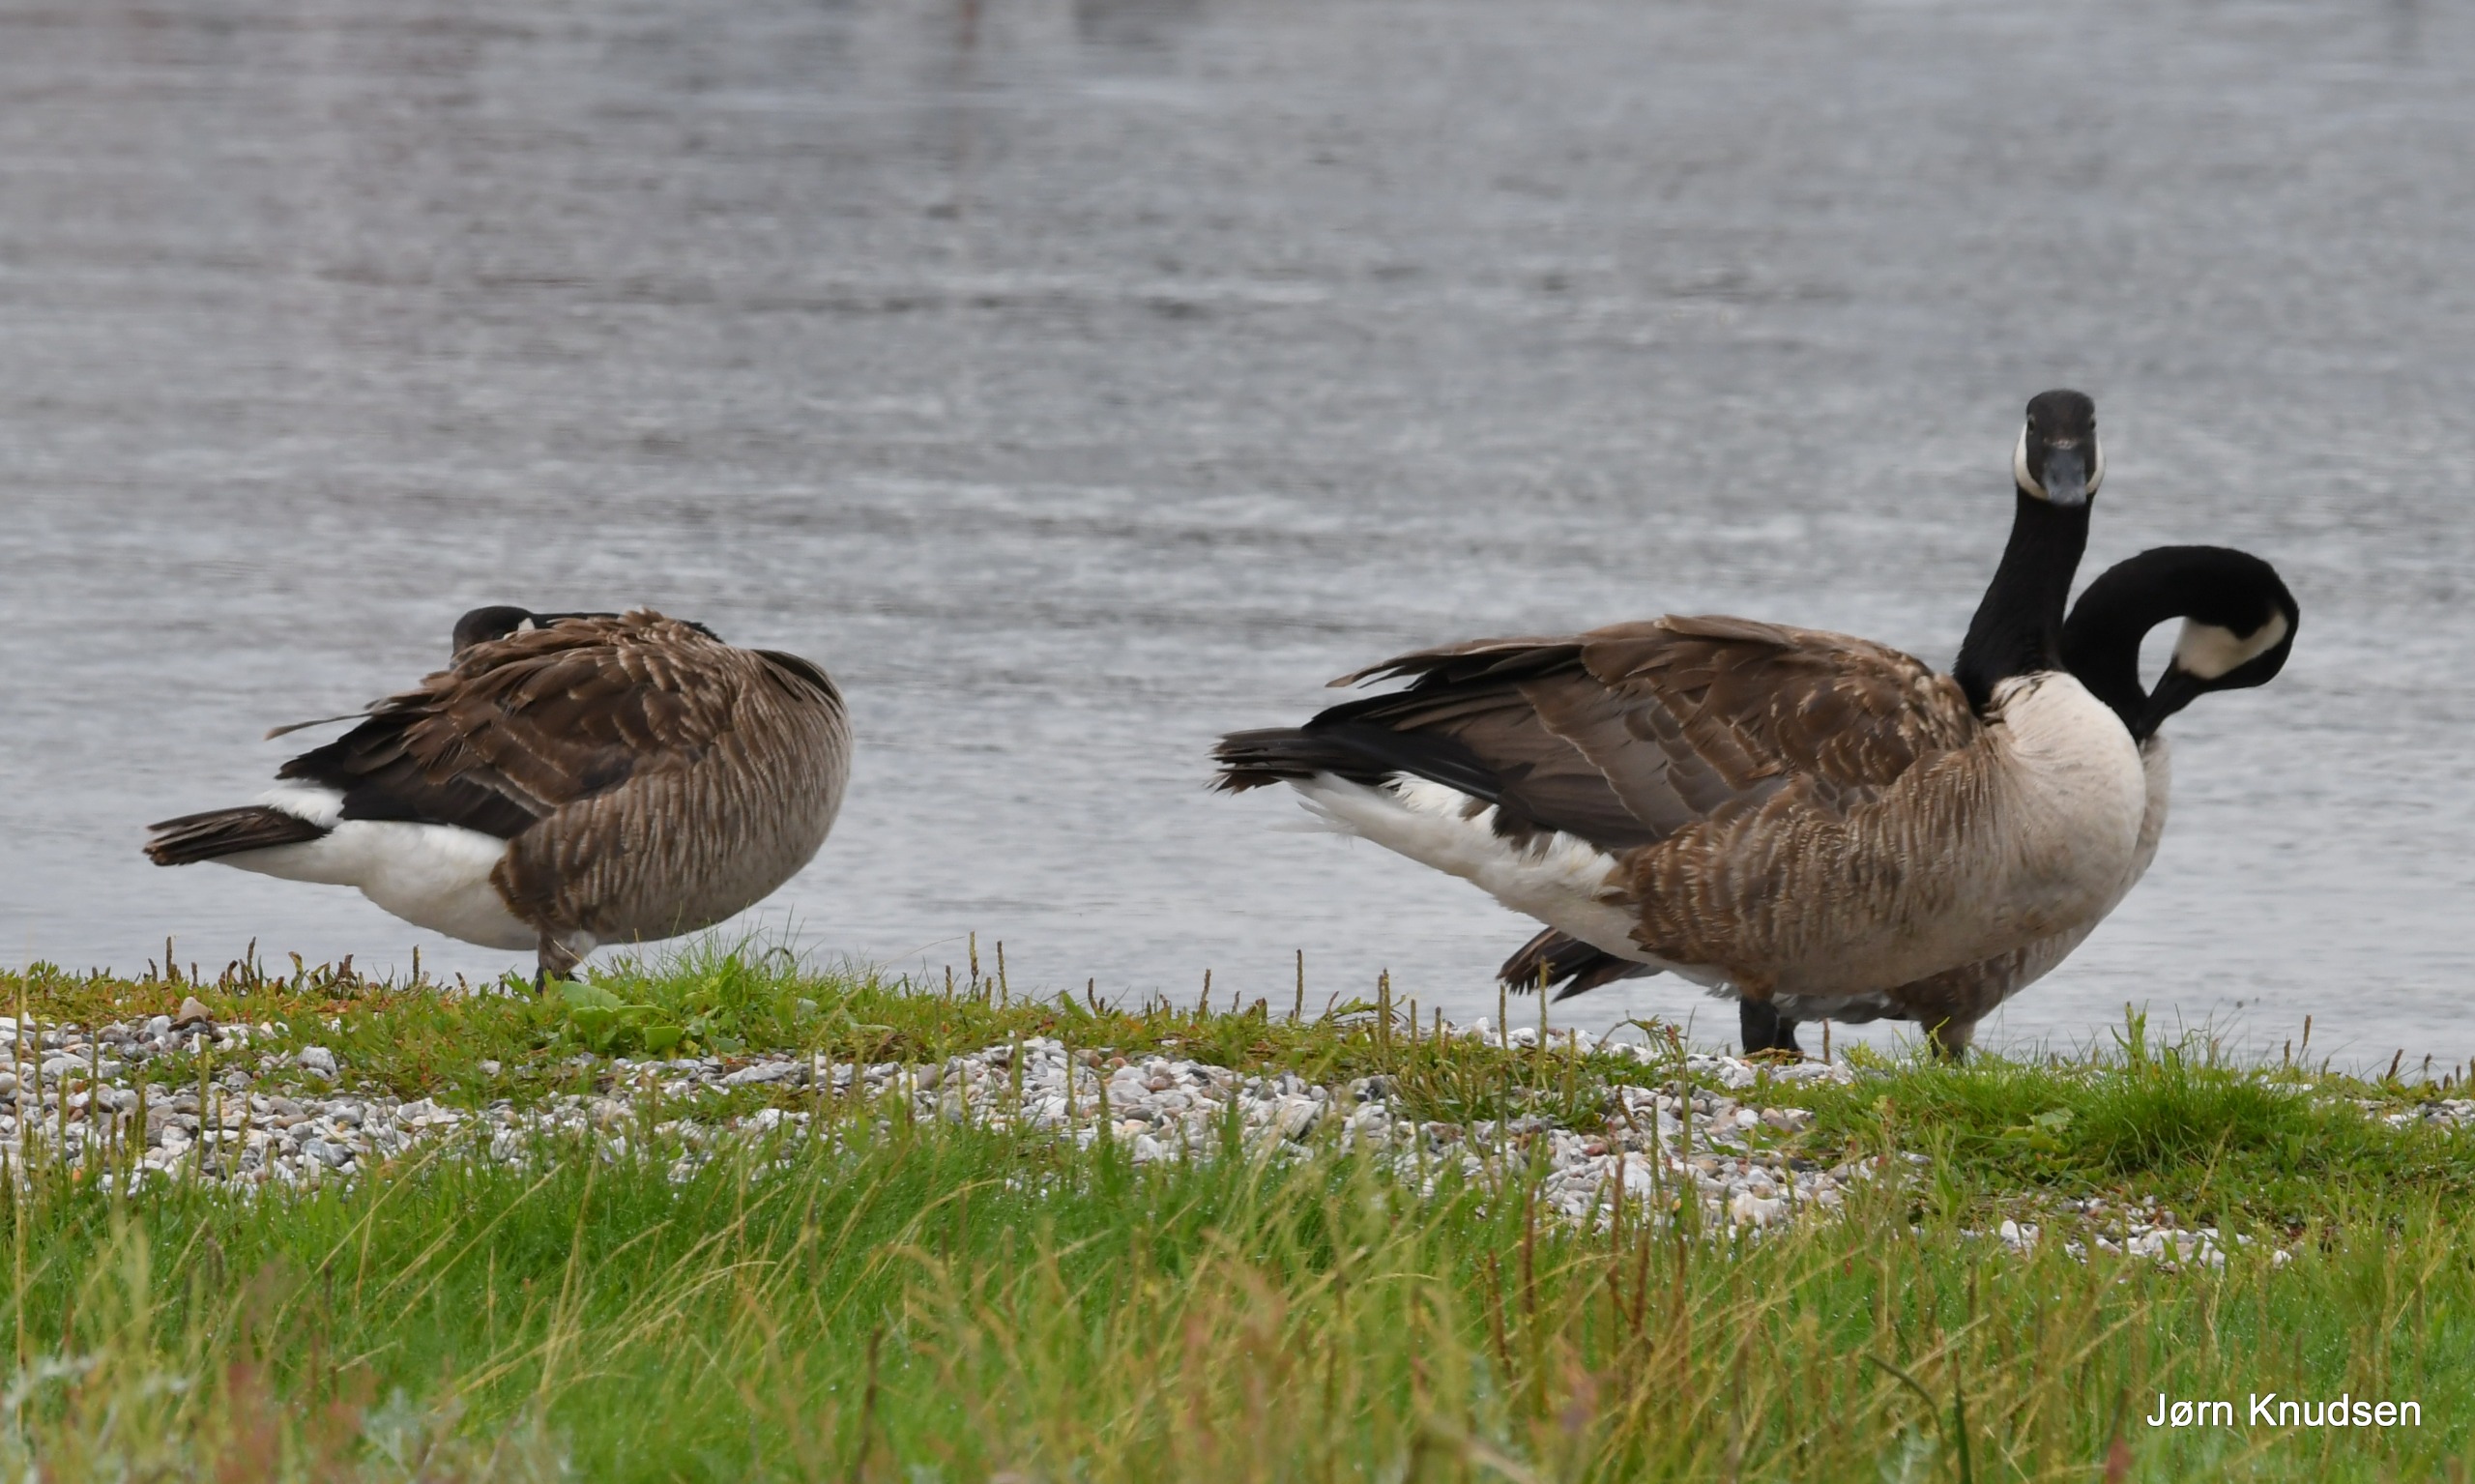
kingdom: Animalia
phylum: Chordata
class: Aves
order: Anseriformes
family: Anatidae
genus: Branta
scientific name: Branta canadensis
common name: Canadagås
